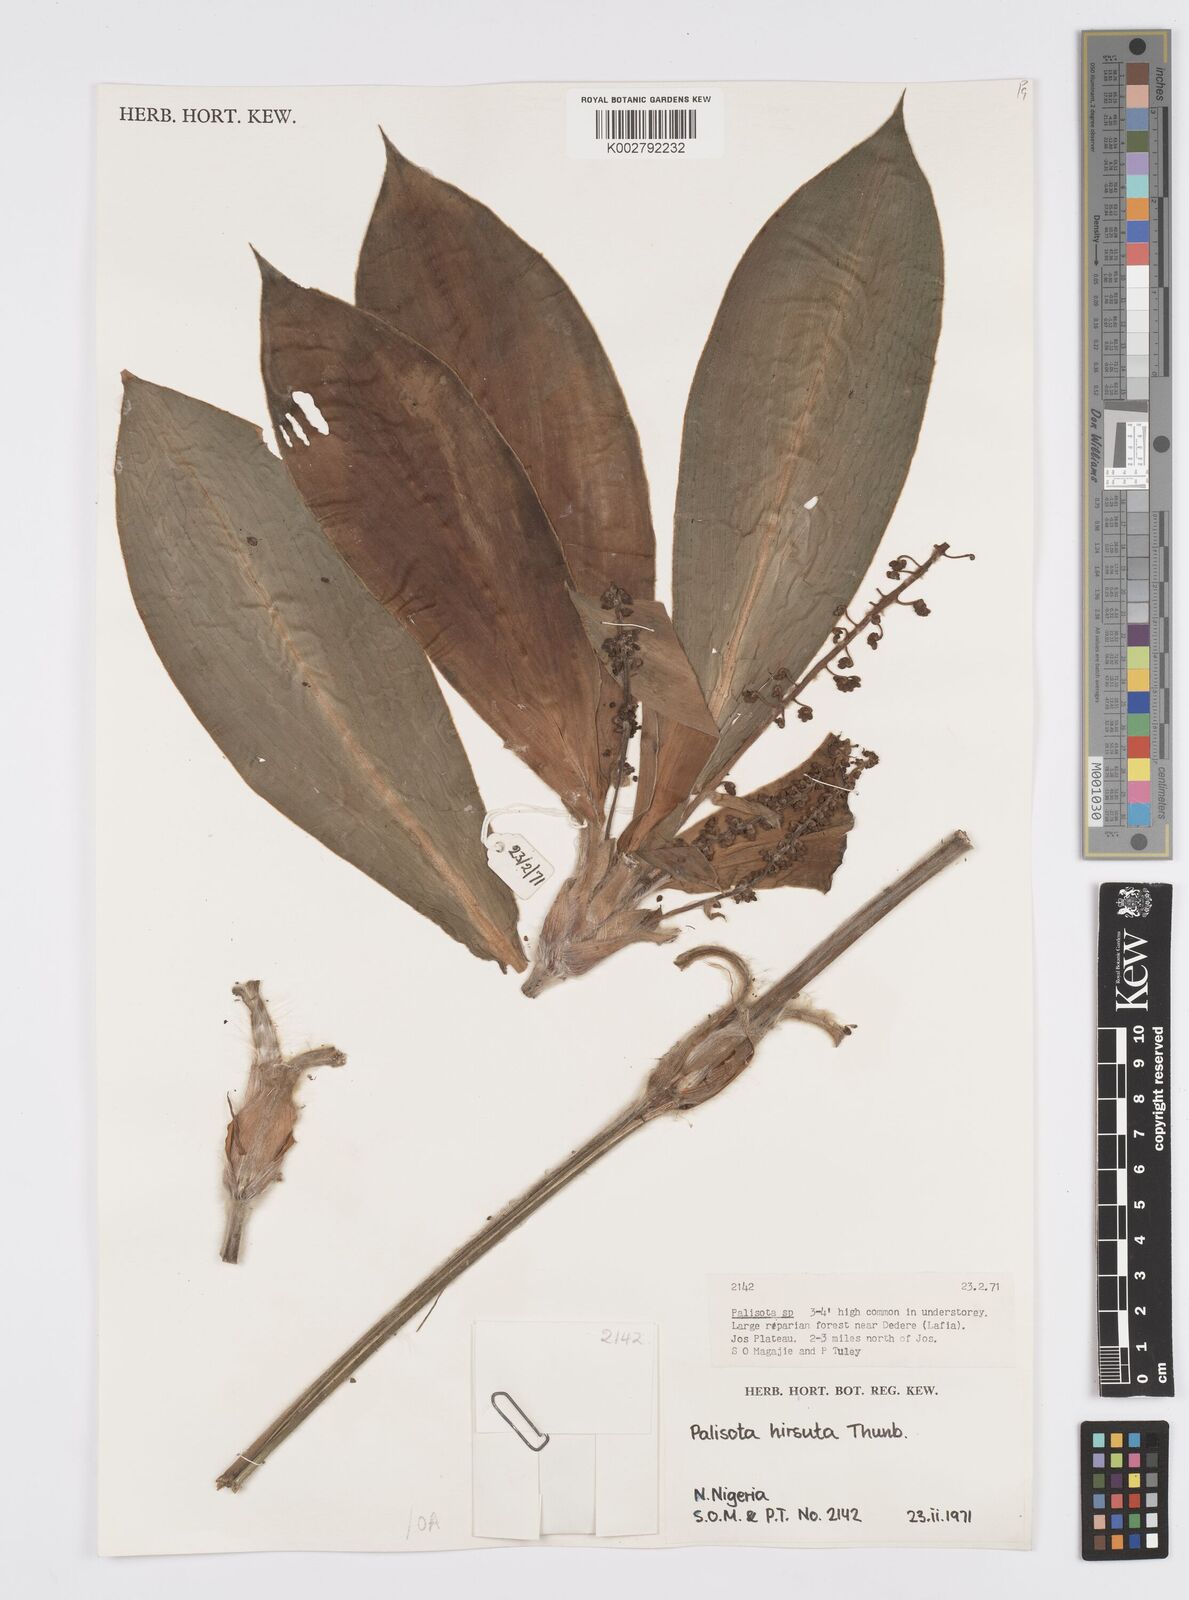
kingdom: Plantae
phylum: Tracheophyta
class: Liliopsida
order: Commelinales
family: Commelinaceae
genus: Palisota
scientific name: Palisota hirsuta
